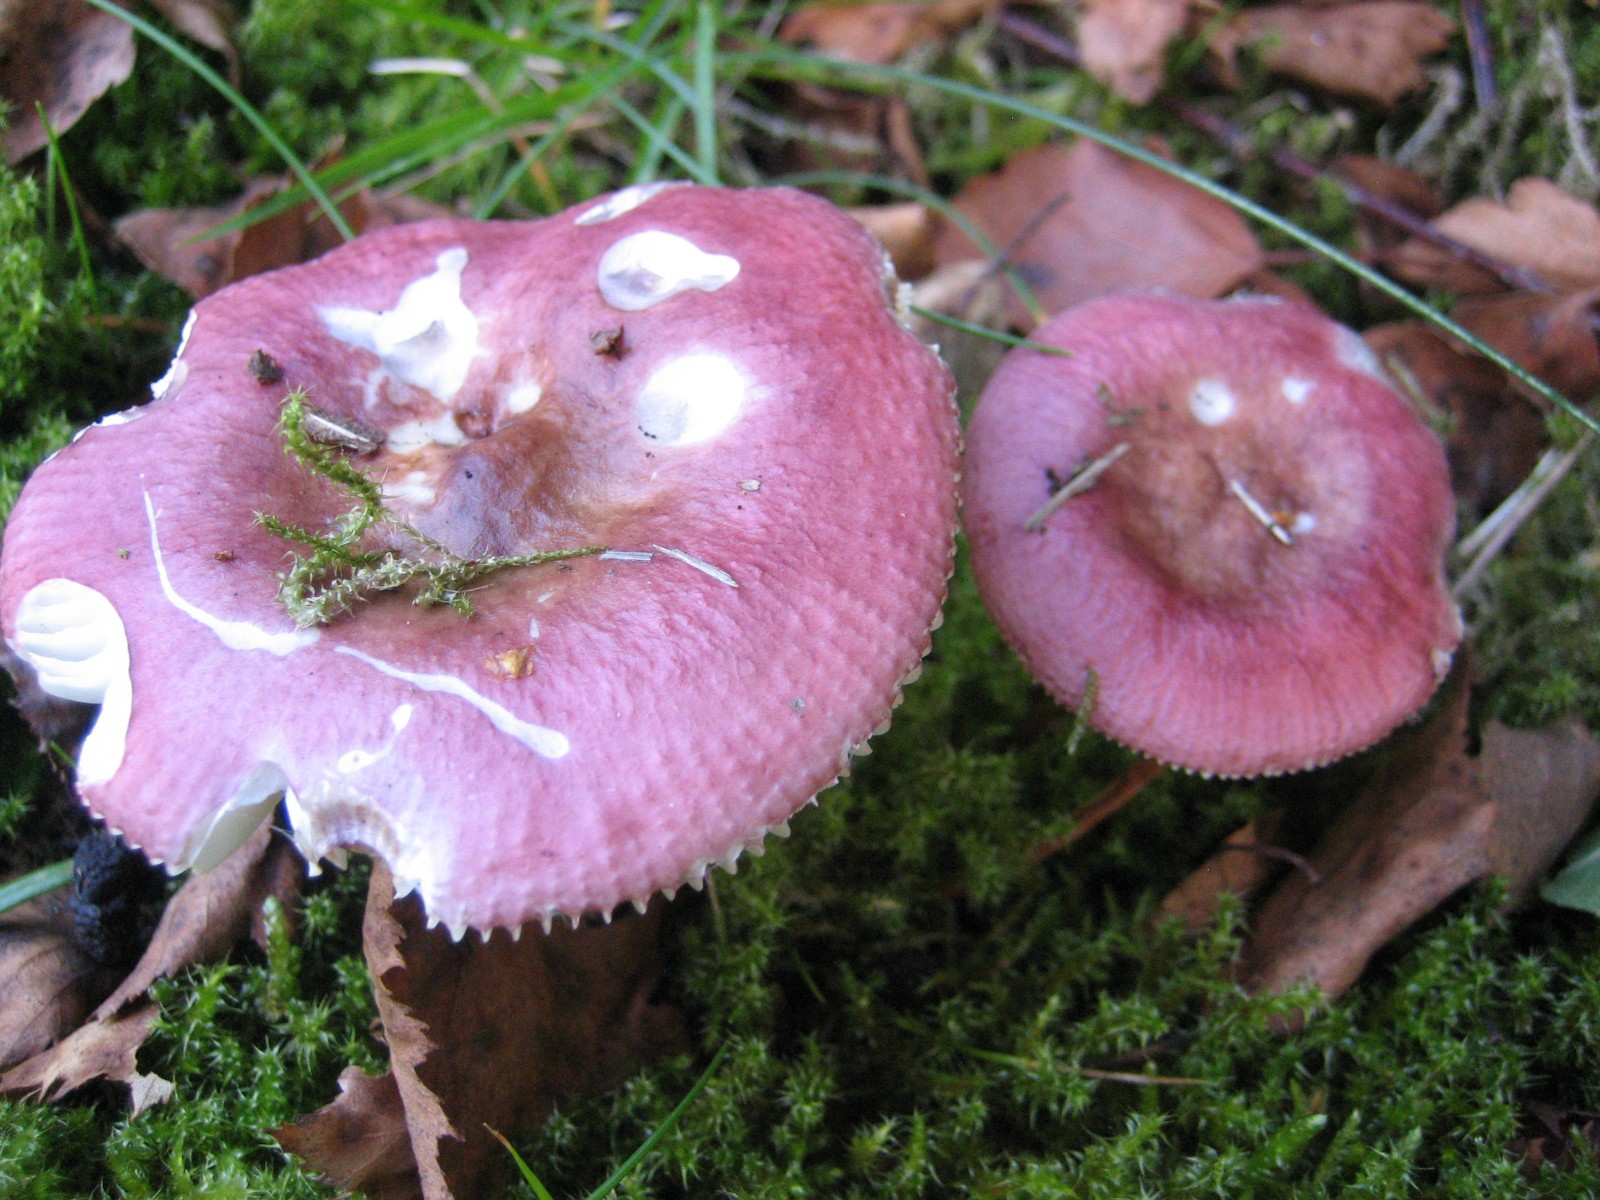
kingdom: Fungi
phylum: Basidiomycota
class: Agaricomycetes
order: Russulales
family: Russulaceae
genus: Russula
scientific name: Russula nitida
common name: året skørhat
